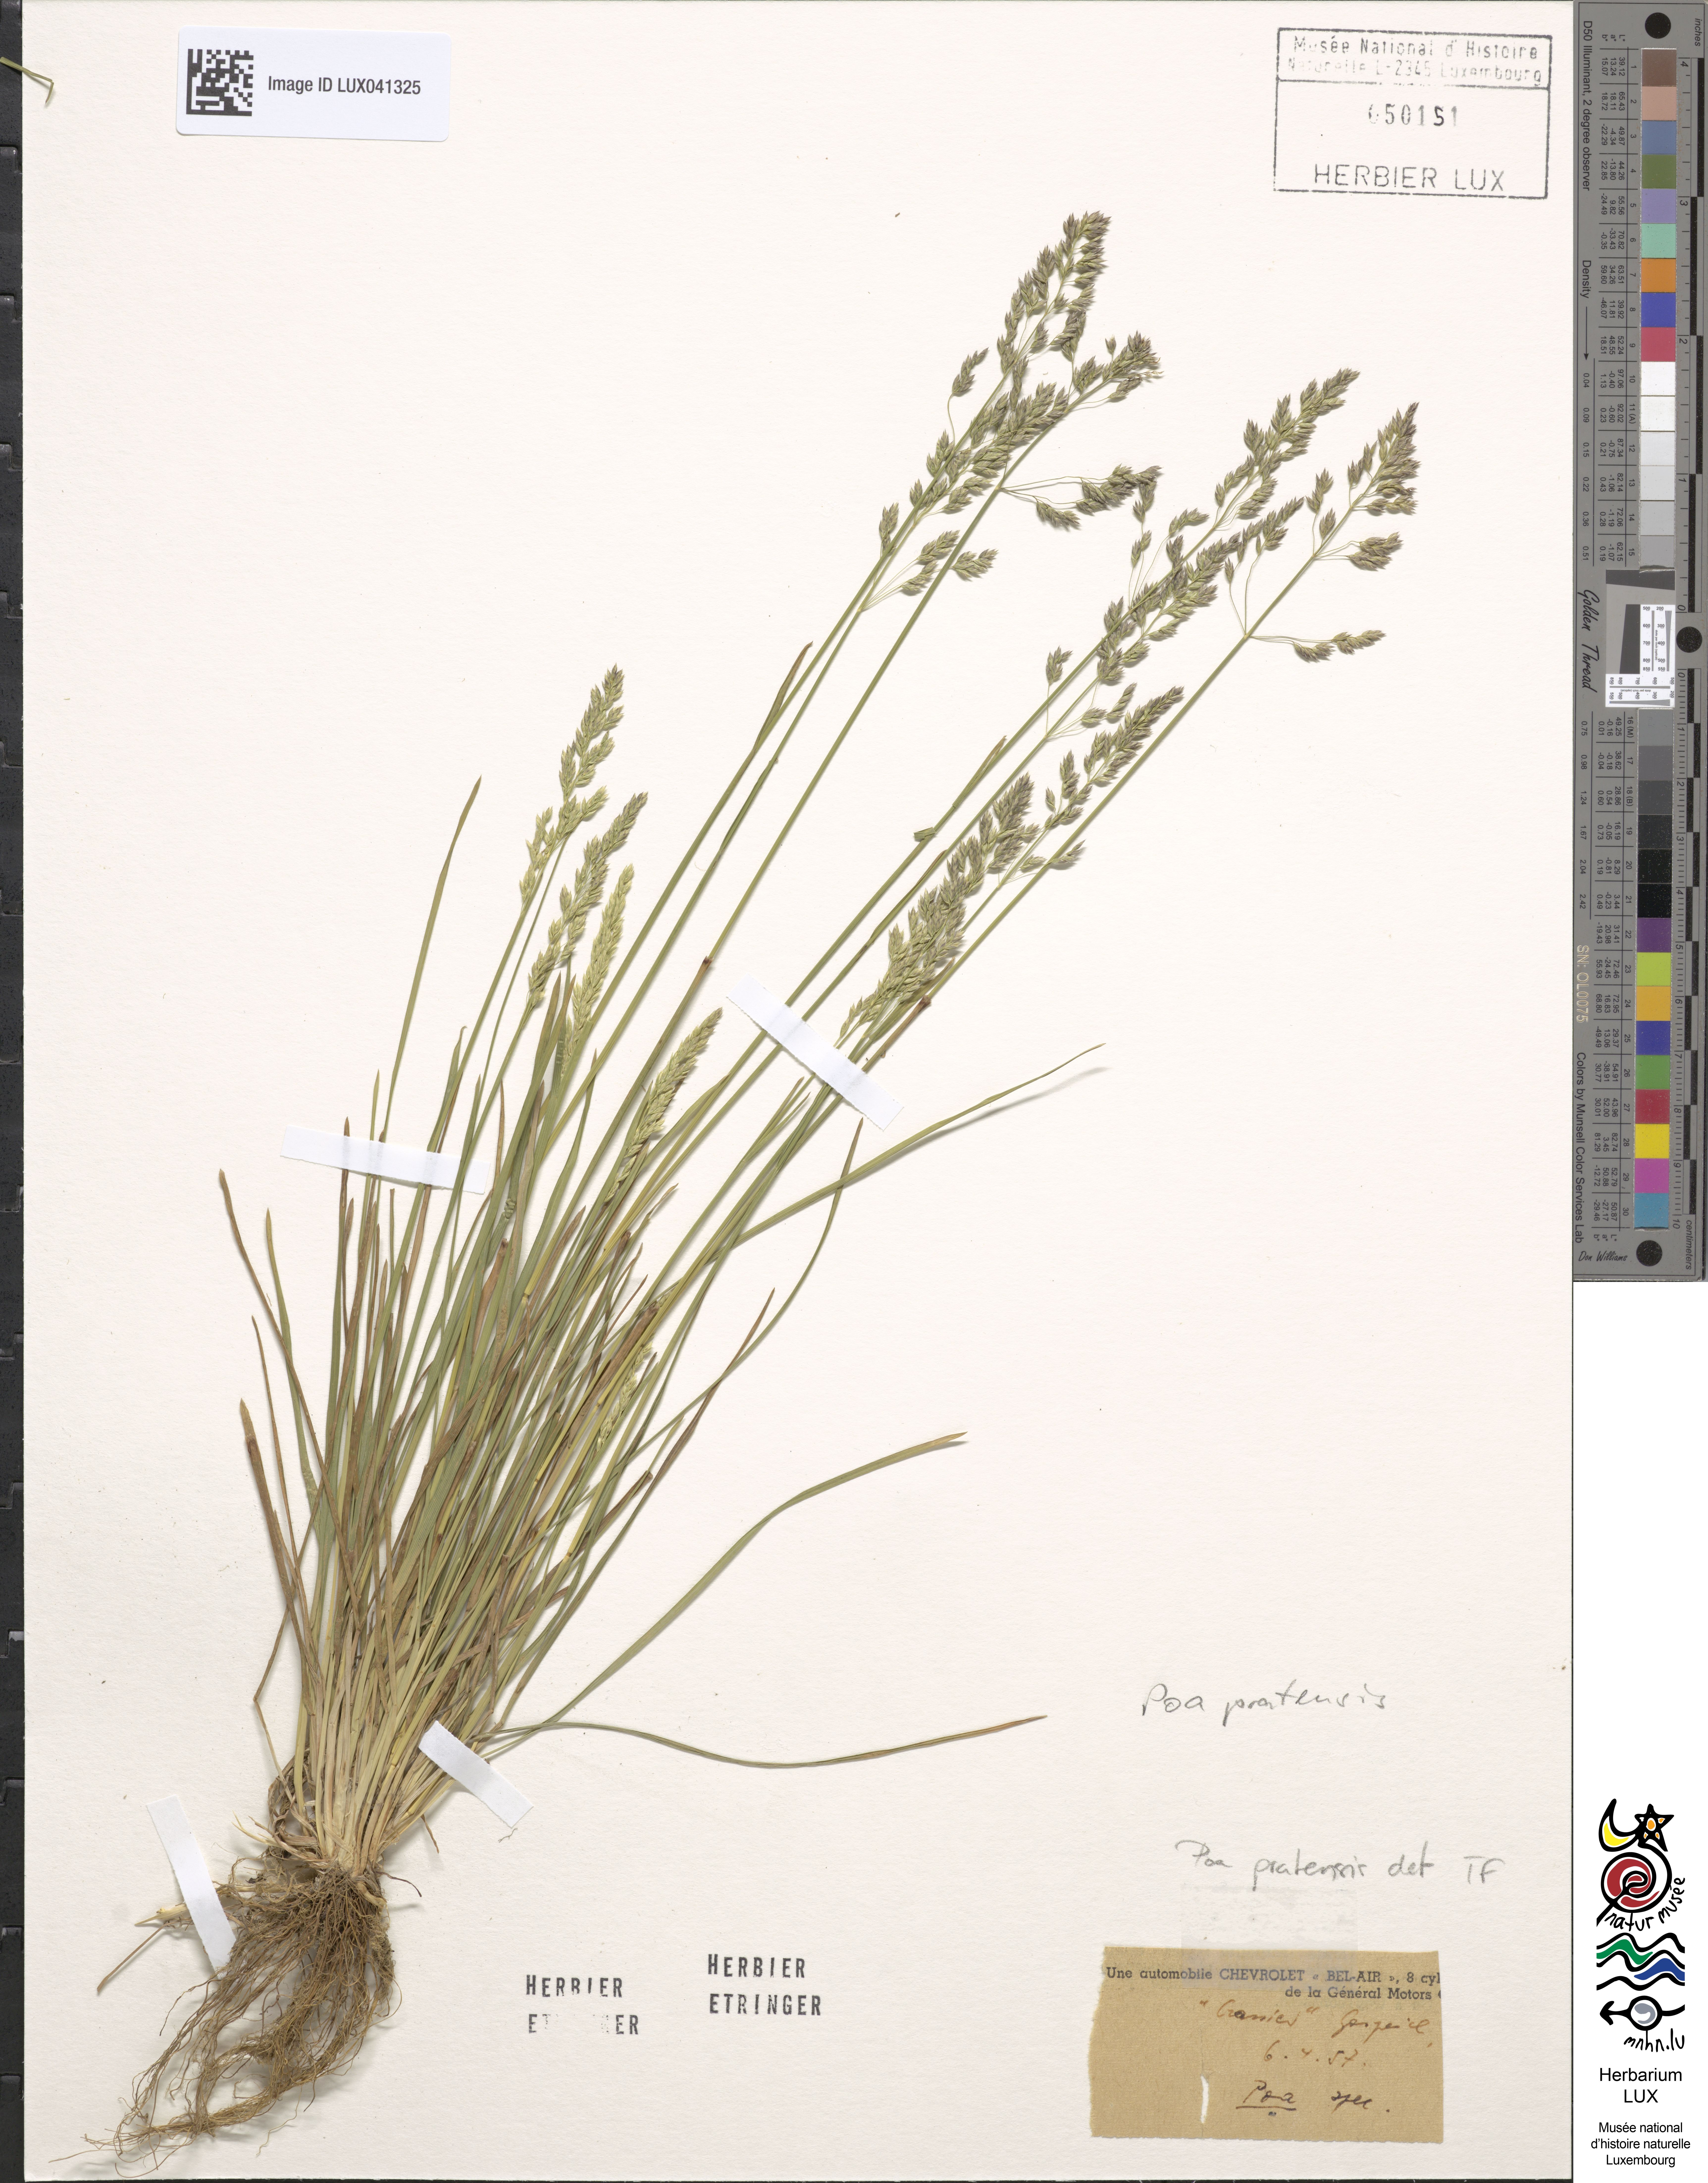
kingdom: Plantae
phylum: Tracheophyta
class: Liliopsida
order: Poales
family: Poaceae
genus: Poa
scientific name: Poa pratensis
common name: Kentucky bluegrass
